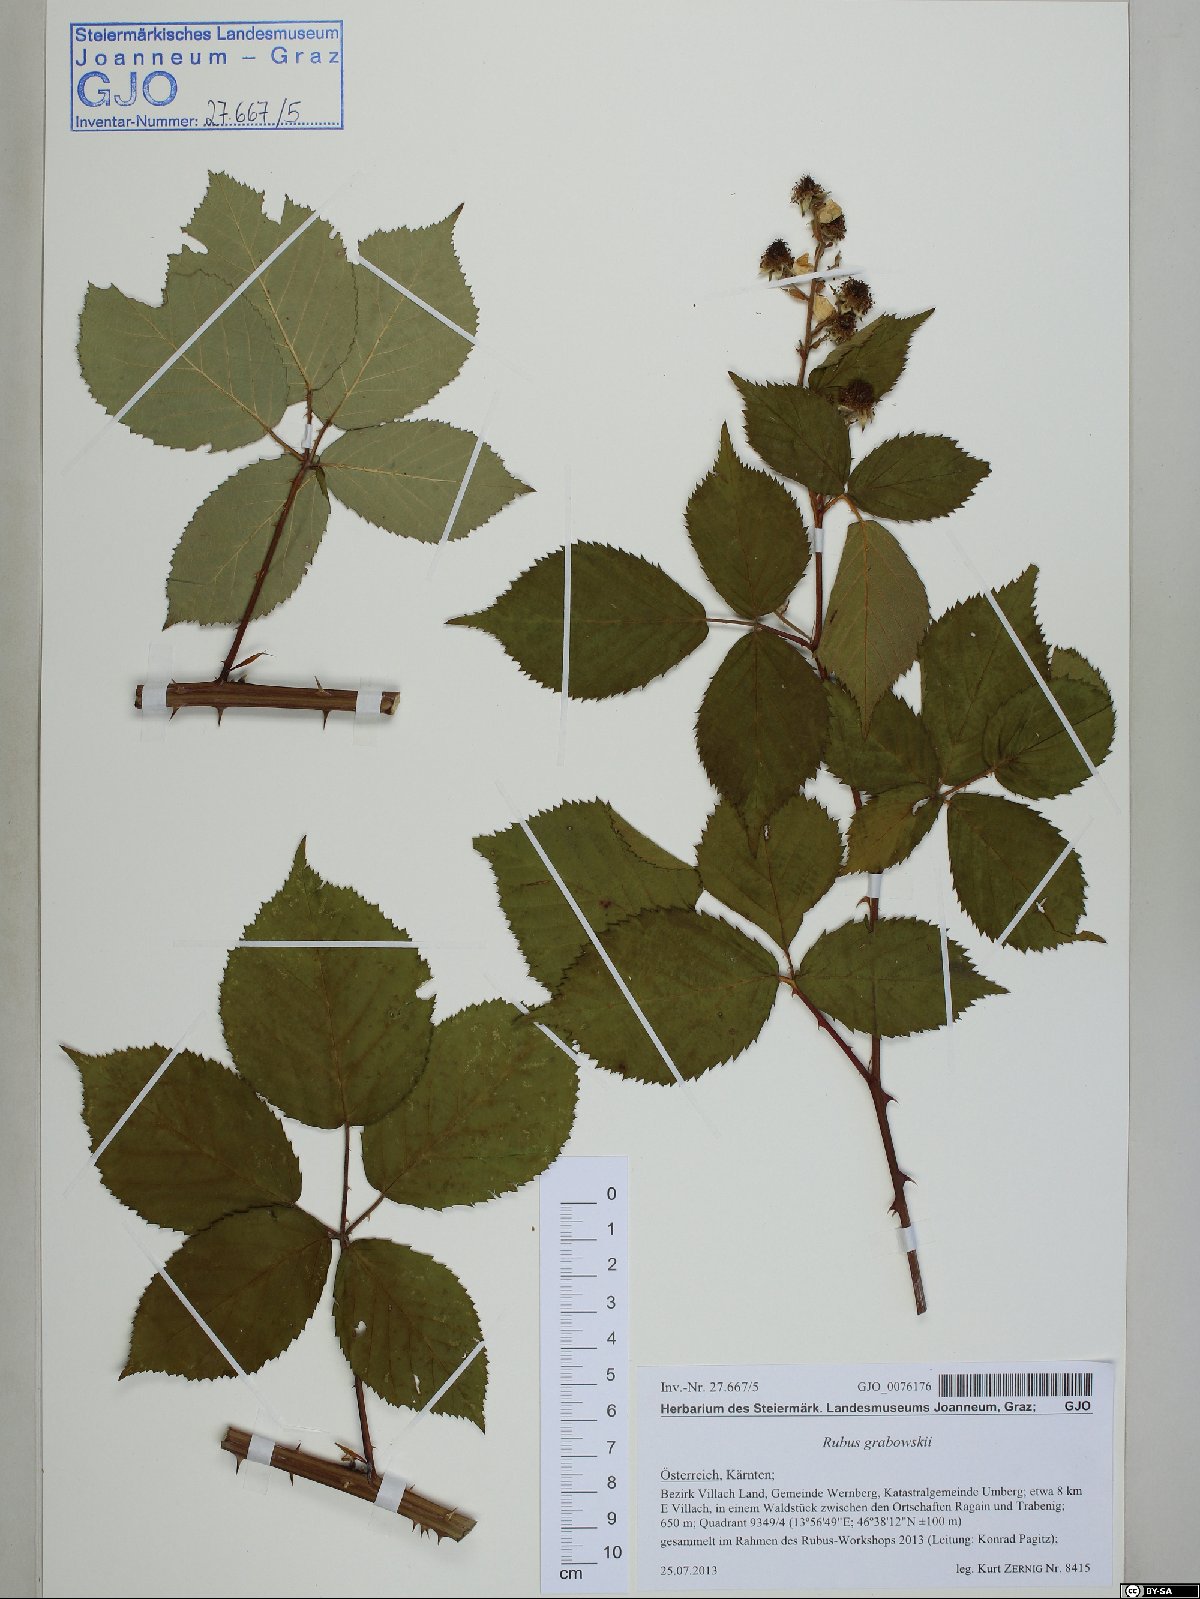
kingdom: Plantae
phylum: Tracheophyta
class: Magnoliopsida
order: Rosales
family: Rosaceae
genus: Rubus
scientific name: Rubus grabowskii
